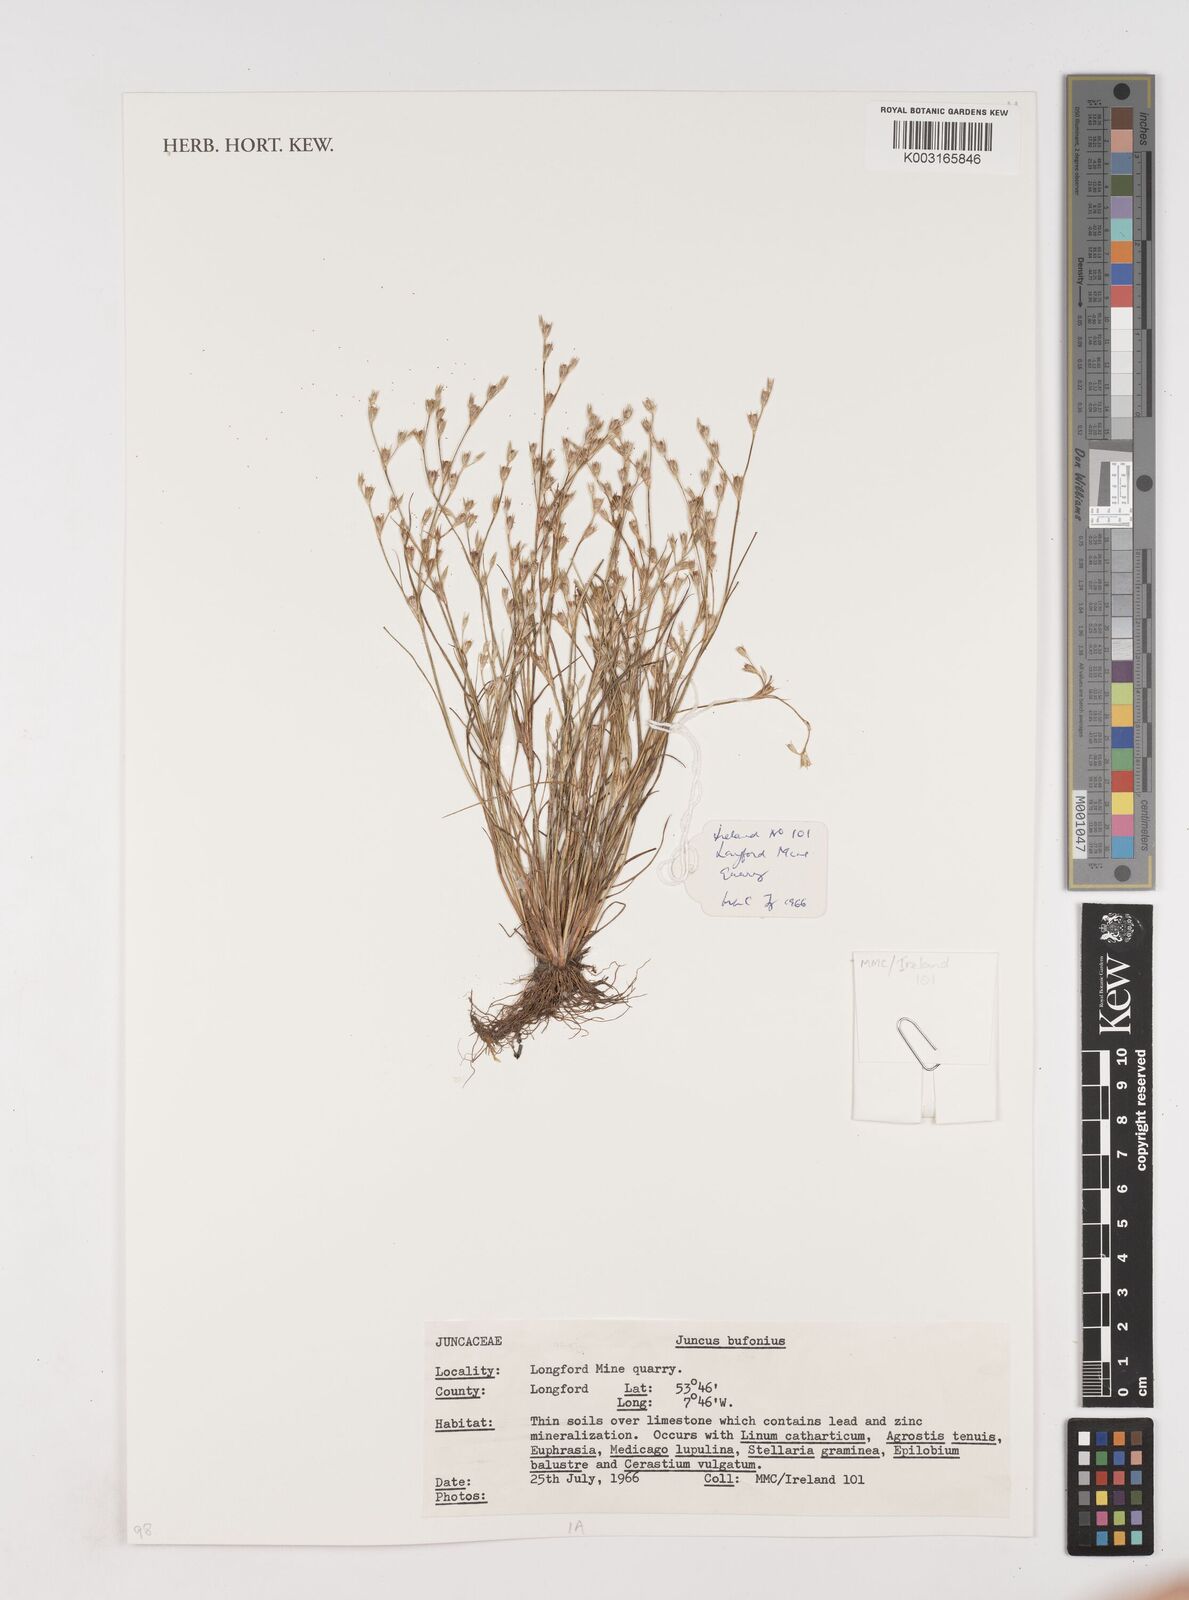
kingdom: Plantae
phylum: Tracheophyta
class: Liliopsida
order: Poales
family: Juncaceae
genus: Juncus
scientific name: Juncus bufonius
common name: Toad rush
